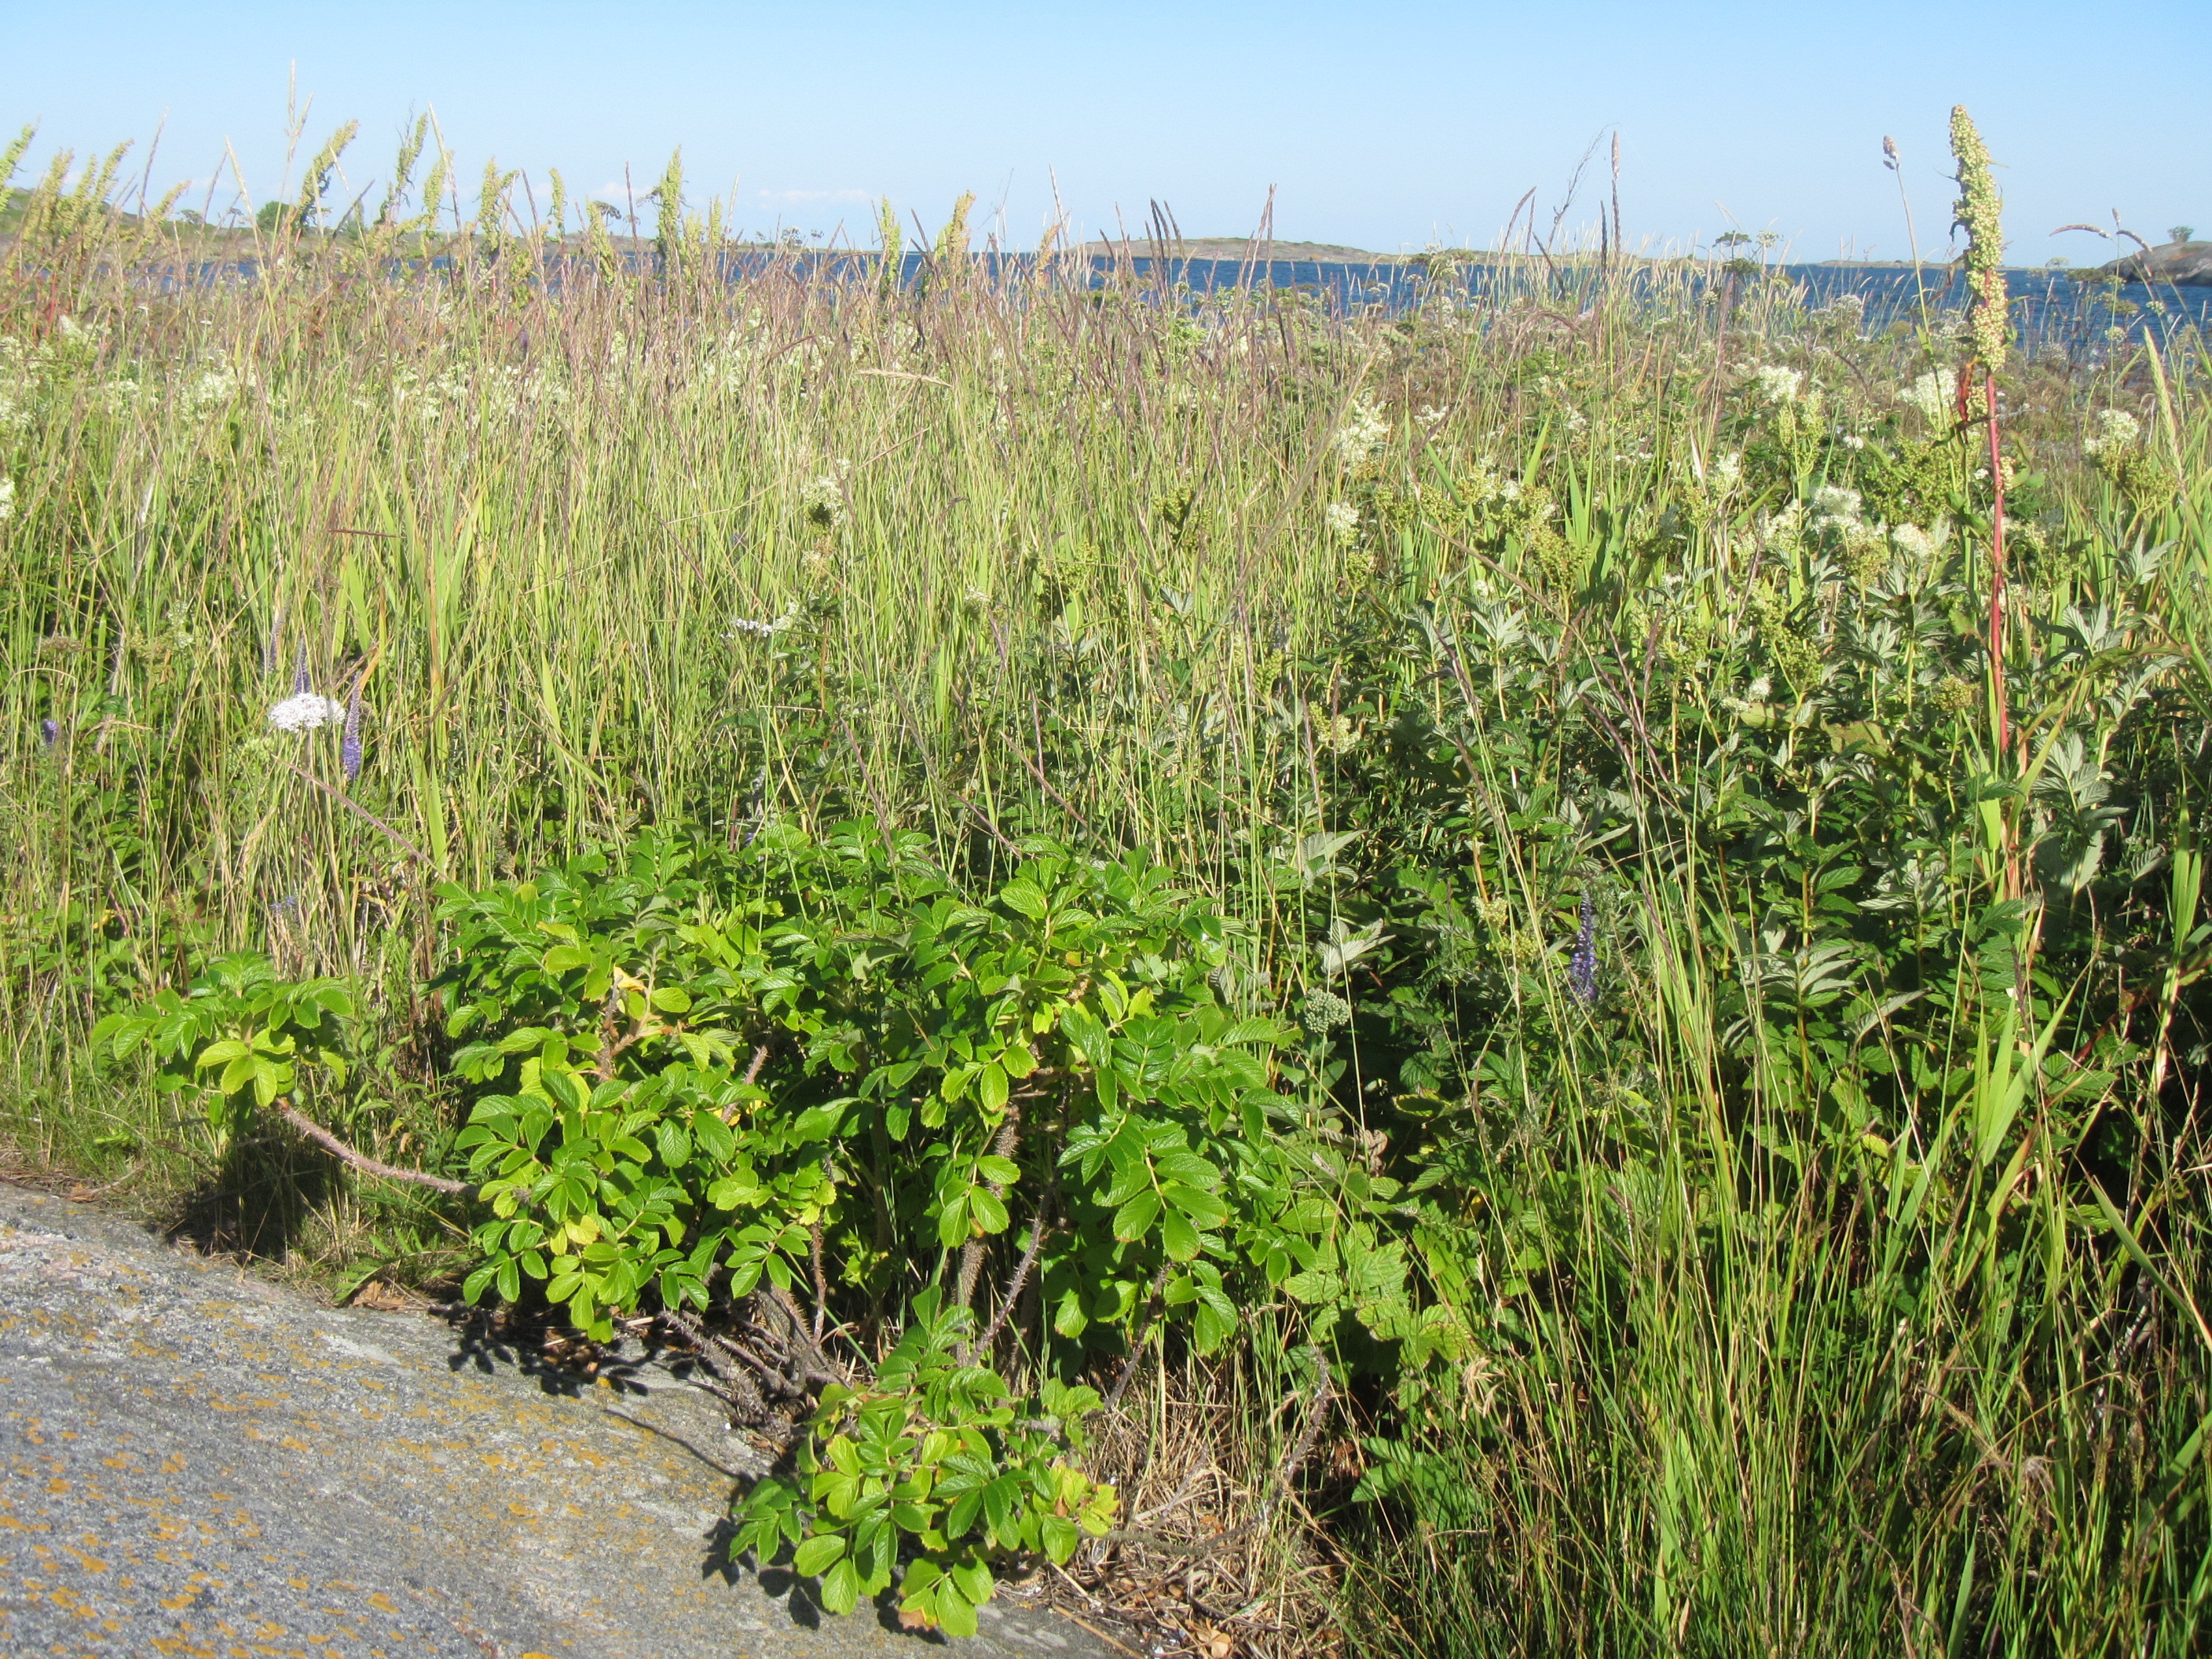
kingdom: Plantae
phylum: Tracheophyta
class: Magnoliopsida
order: Rosales
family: Rosaceae
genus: Rosa
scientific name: Rosa rugosa
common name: Japanese rose
